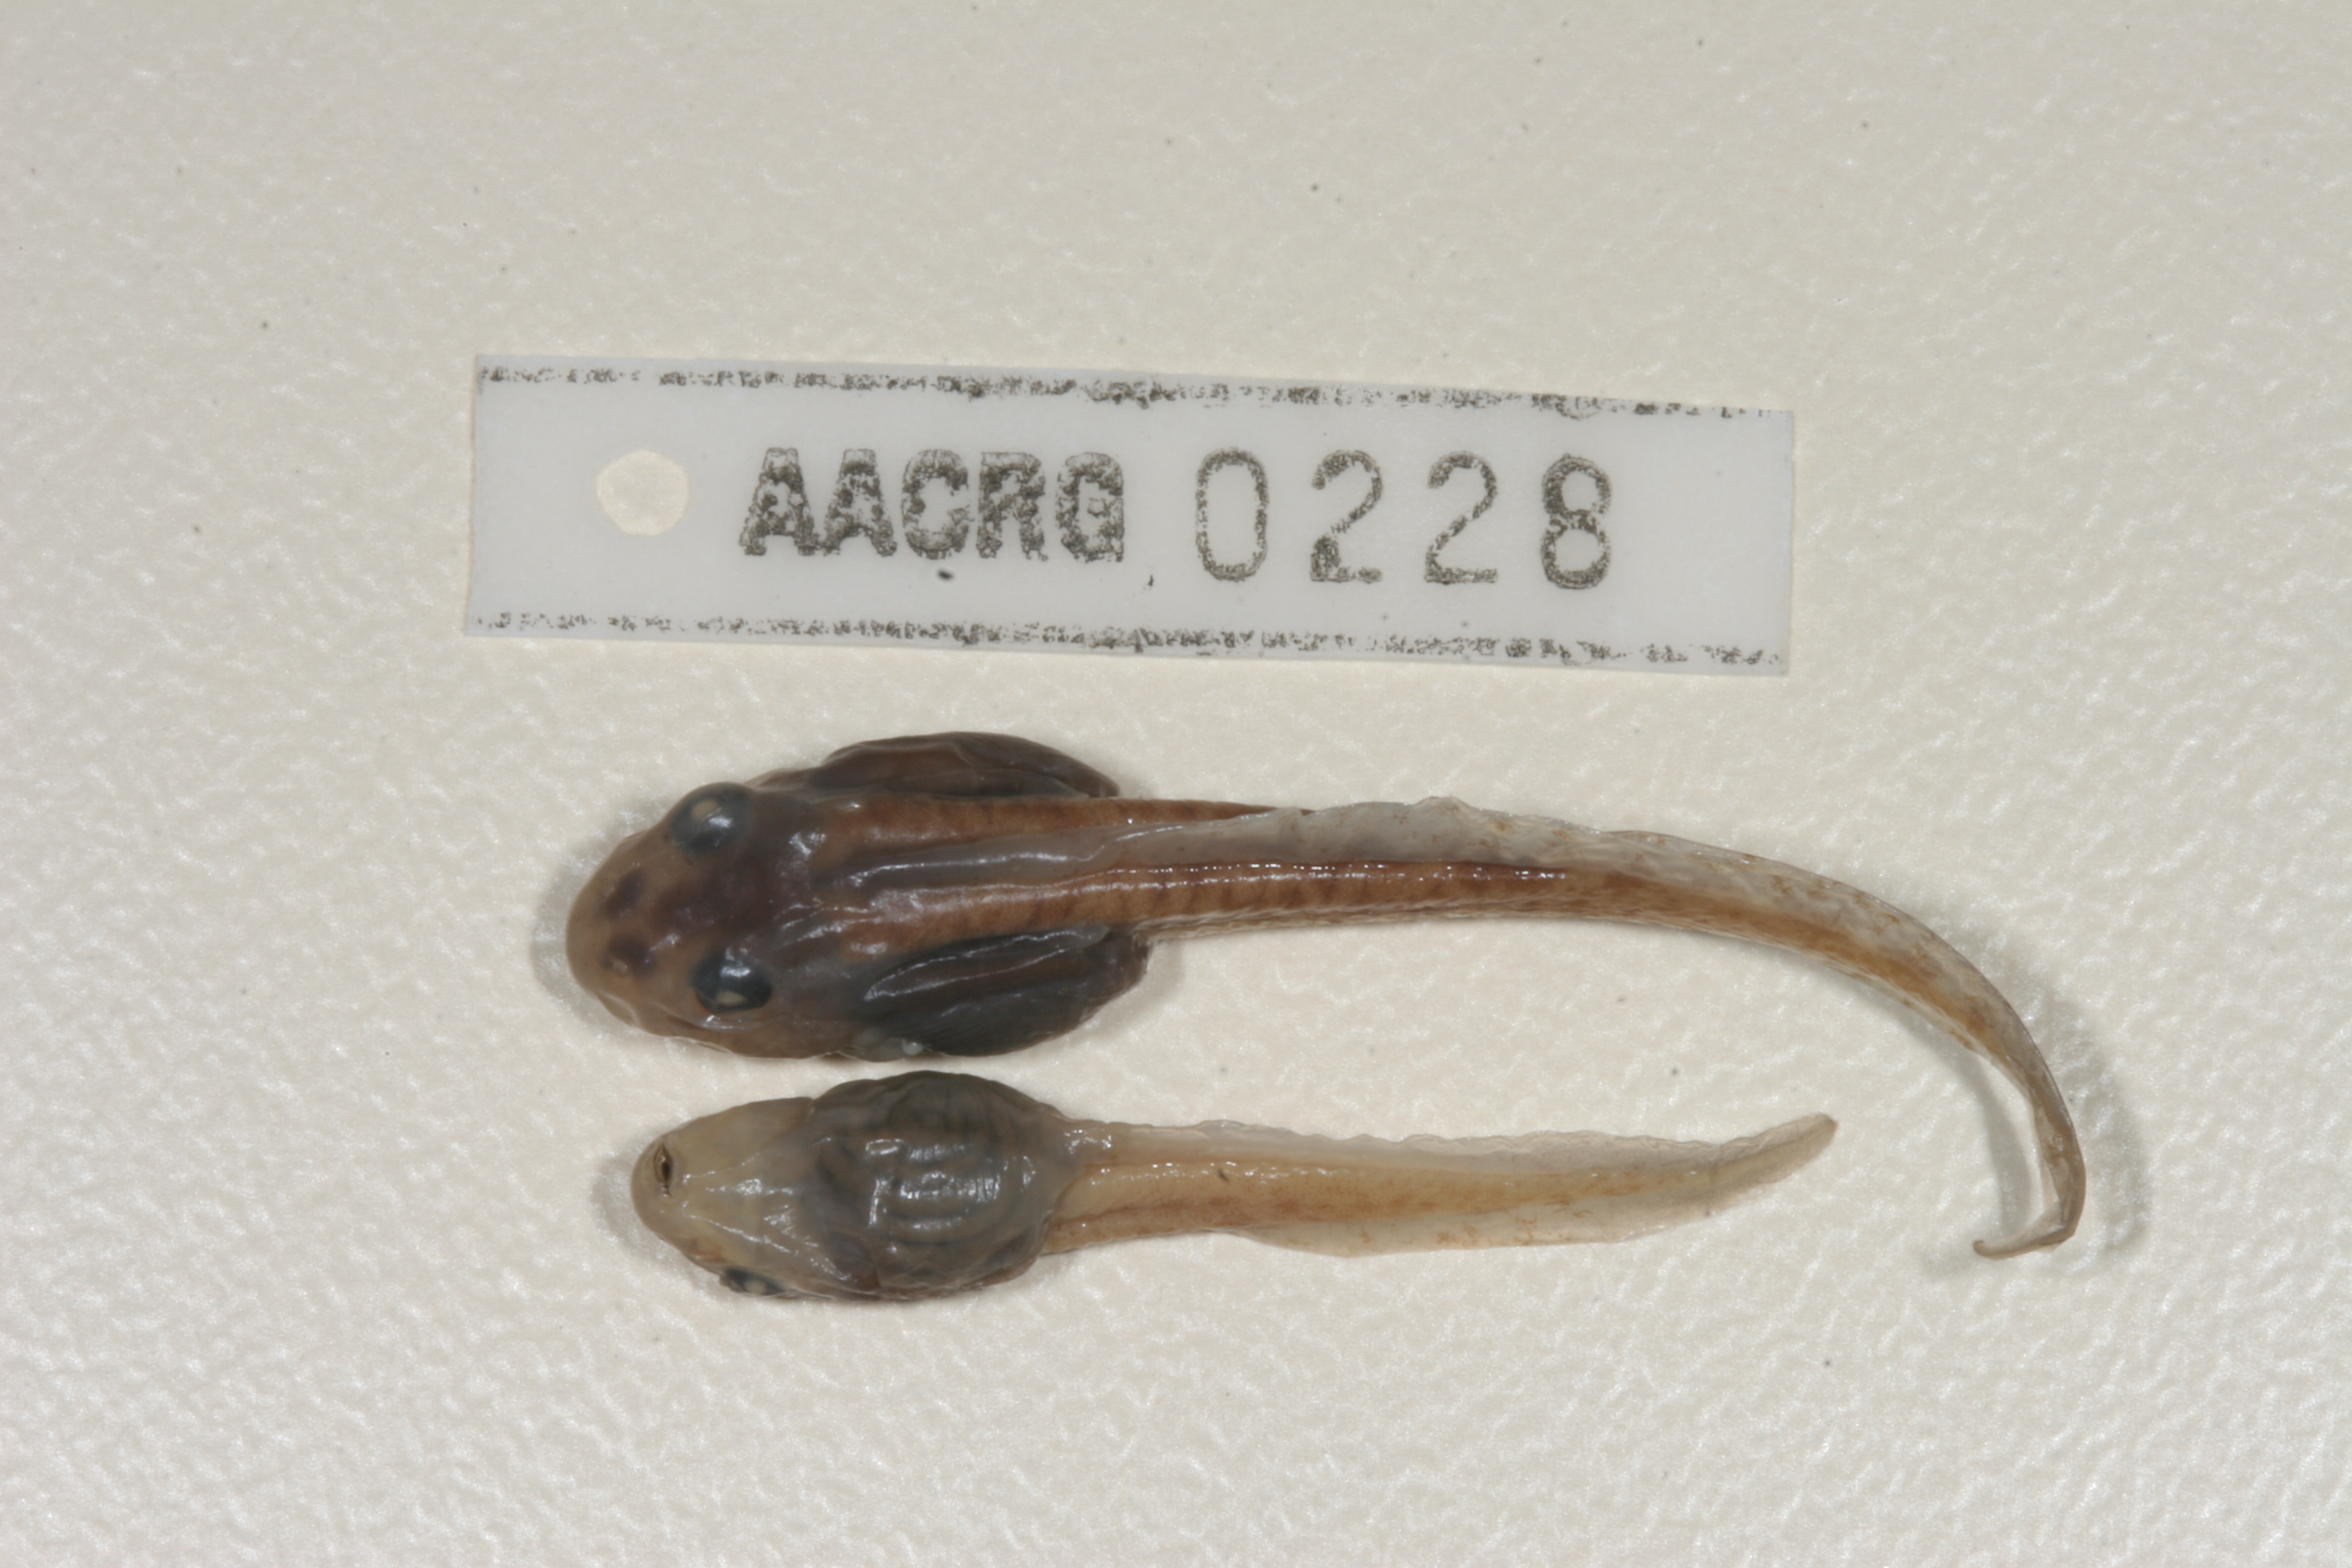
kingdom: Animalia
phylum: Chordata
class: Amphibia
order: Anura
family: Pyxicephalidae
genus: Amietia
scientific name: Amietia angolensis
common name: Dusky-throated frog
